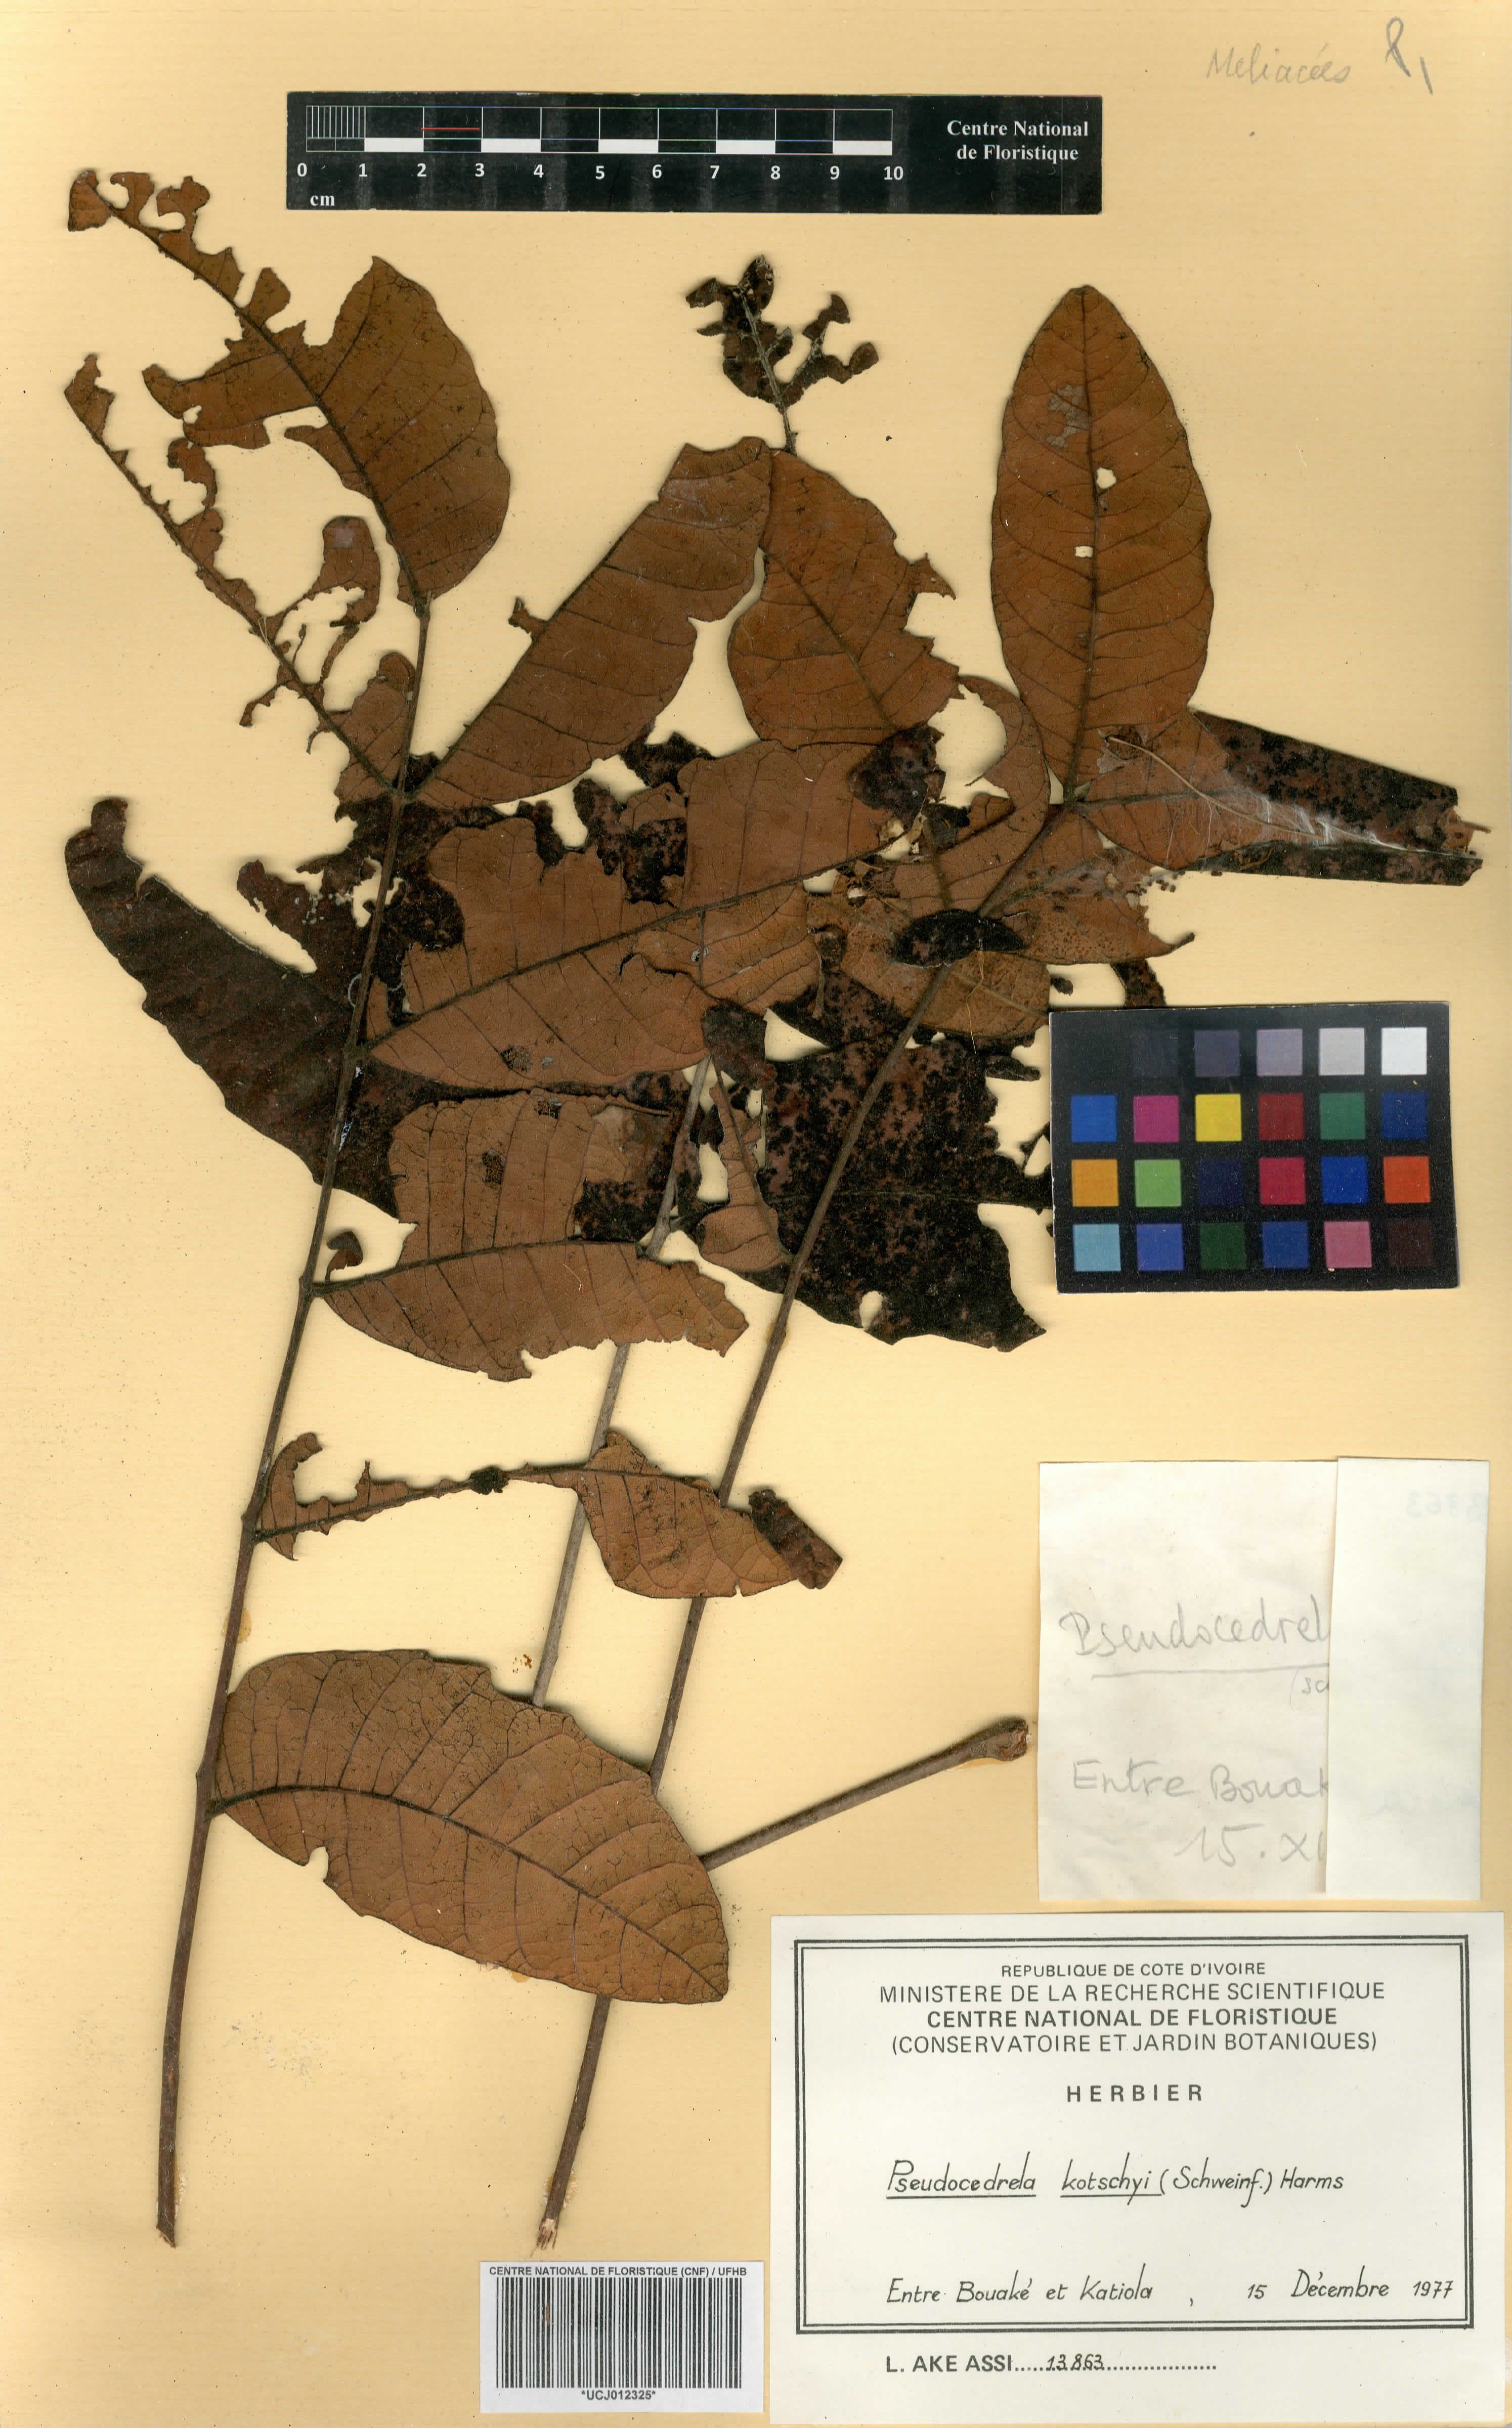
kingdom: Plantae
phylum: Tracheophyta
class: Magnoliopsida
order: Sapindales
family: Meliaceae
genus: Trichilia
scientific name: Trichilia djalonis
